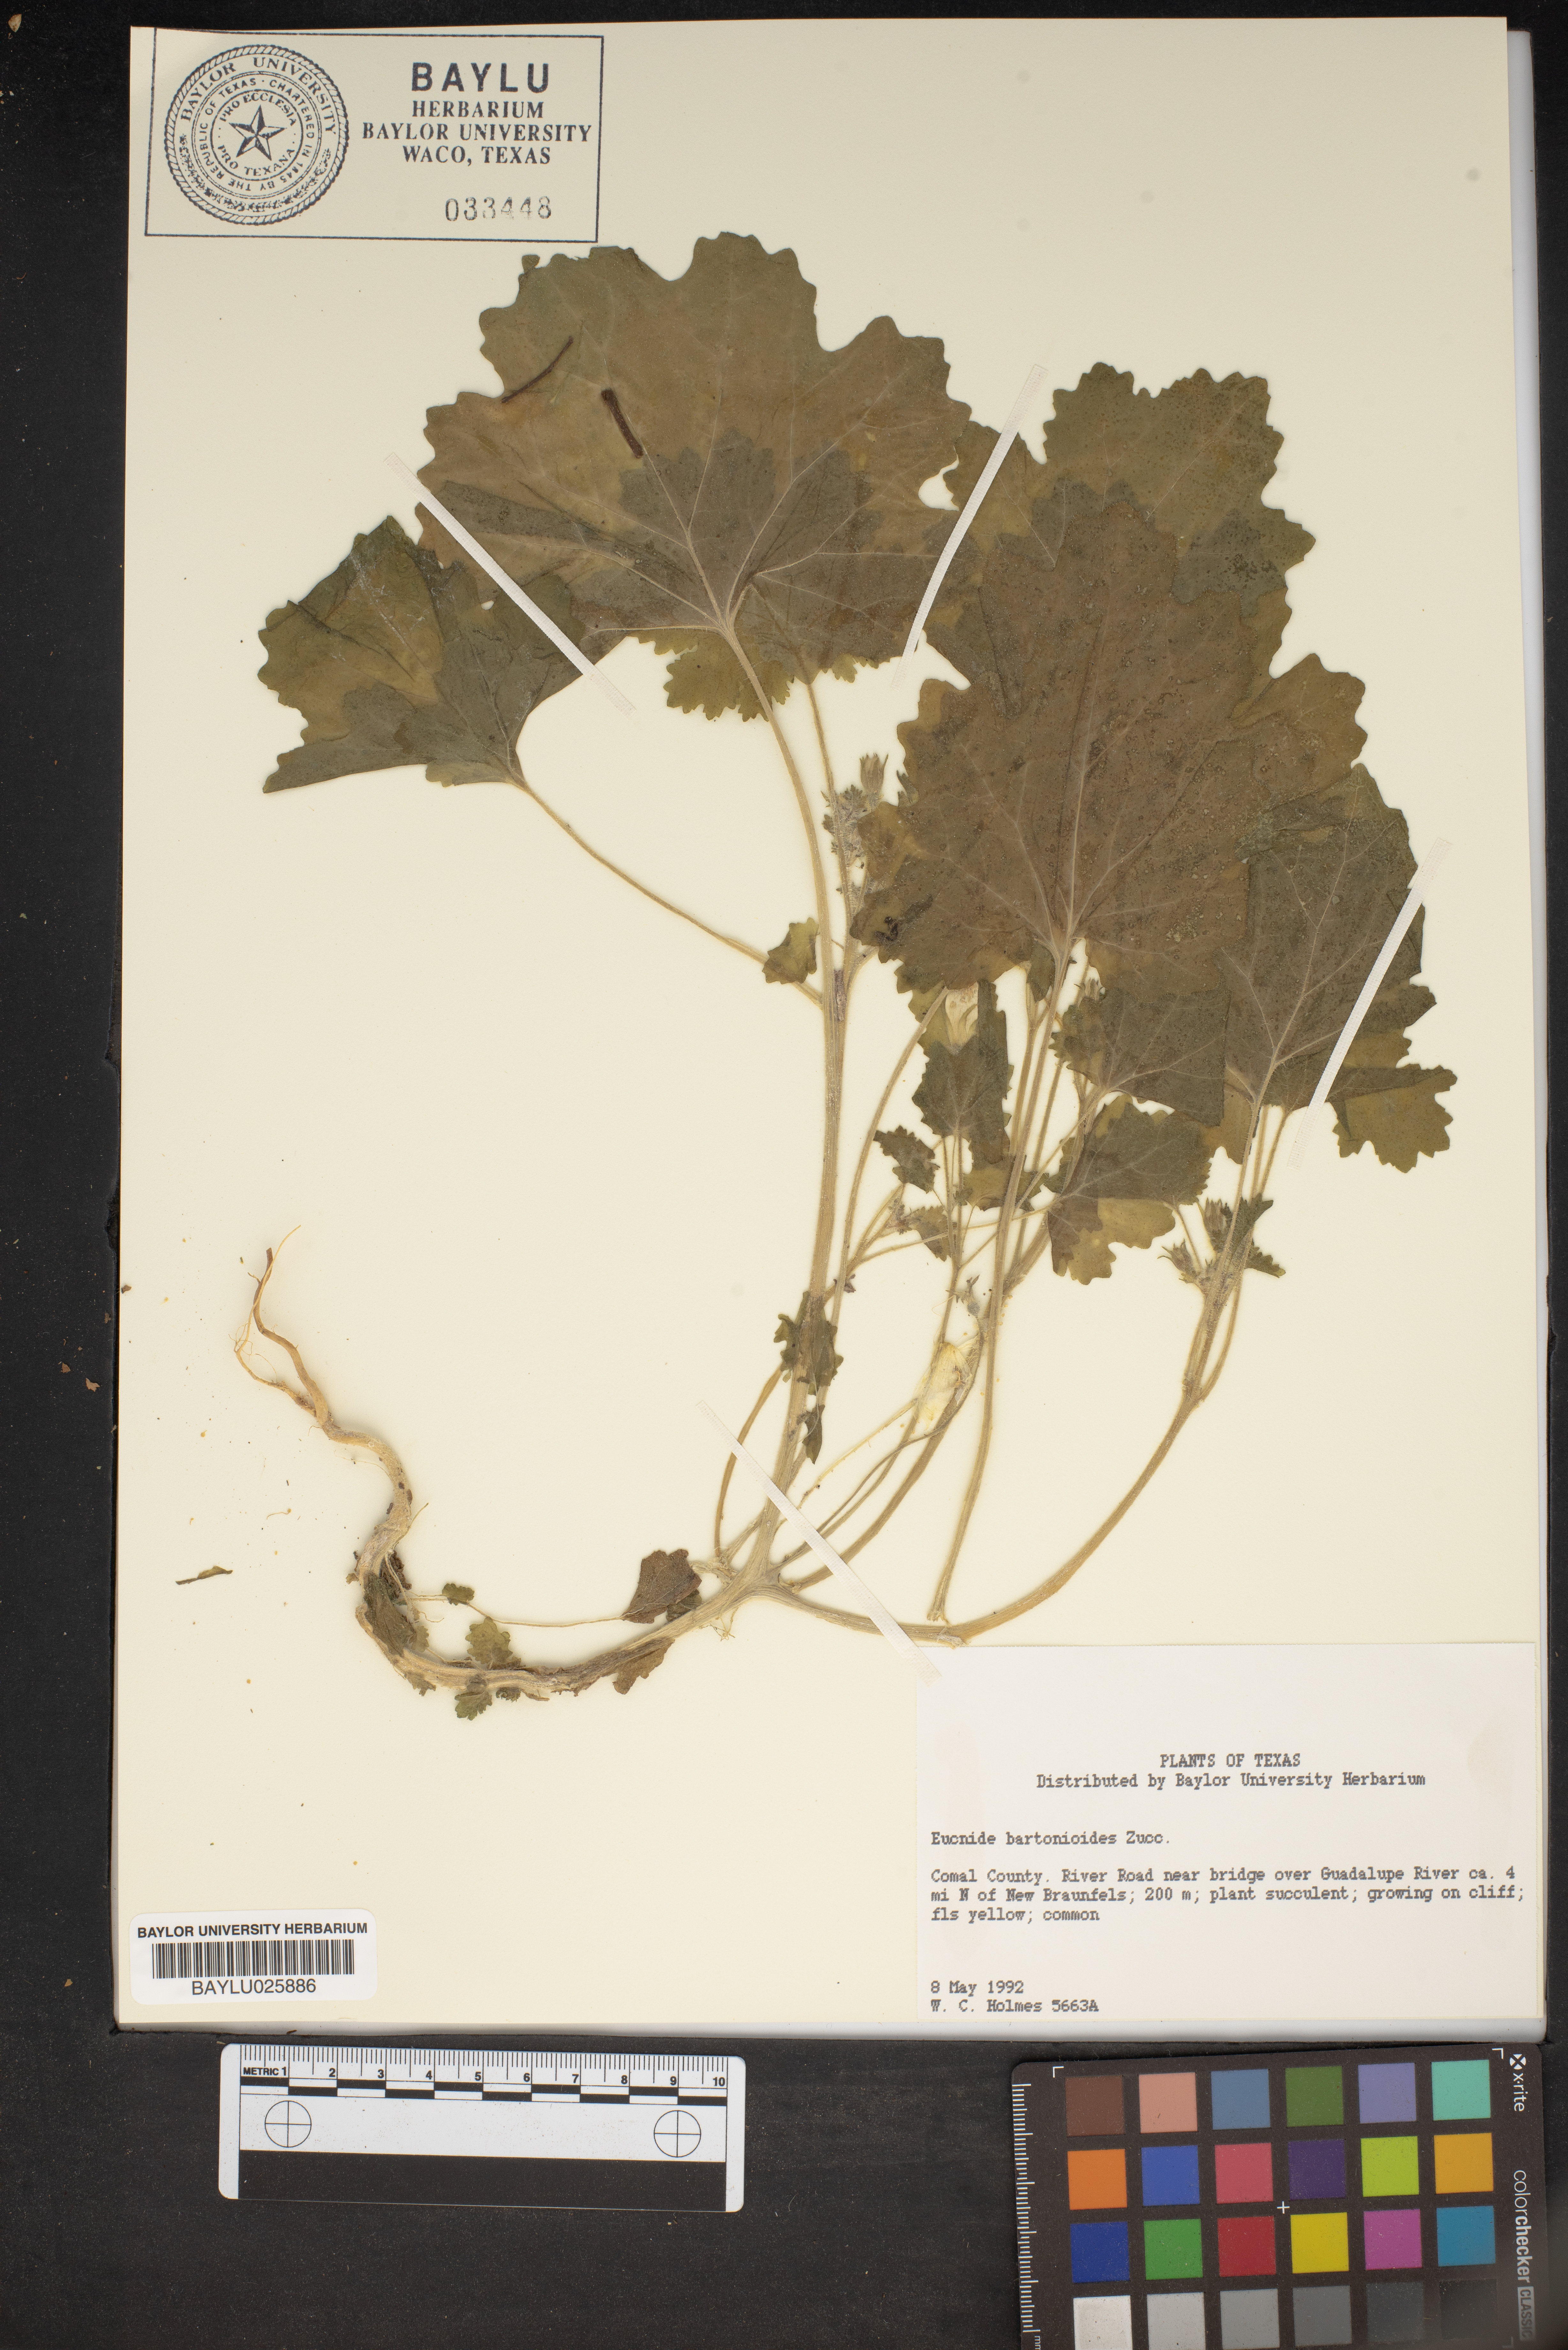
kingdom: Plantae
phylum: Tracheophyta
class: Magnoliopsida
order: Cornales
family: Loasaceae
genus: Eucnide
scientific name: Eucnide bartonioides
